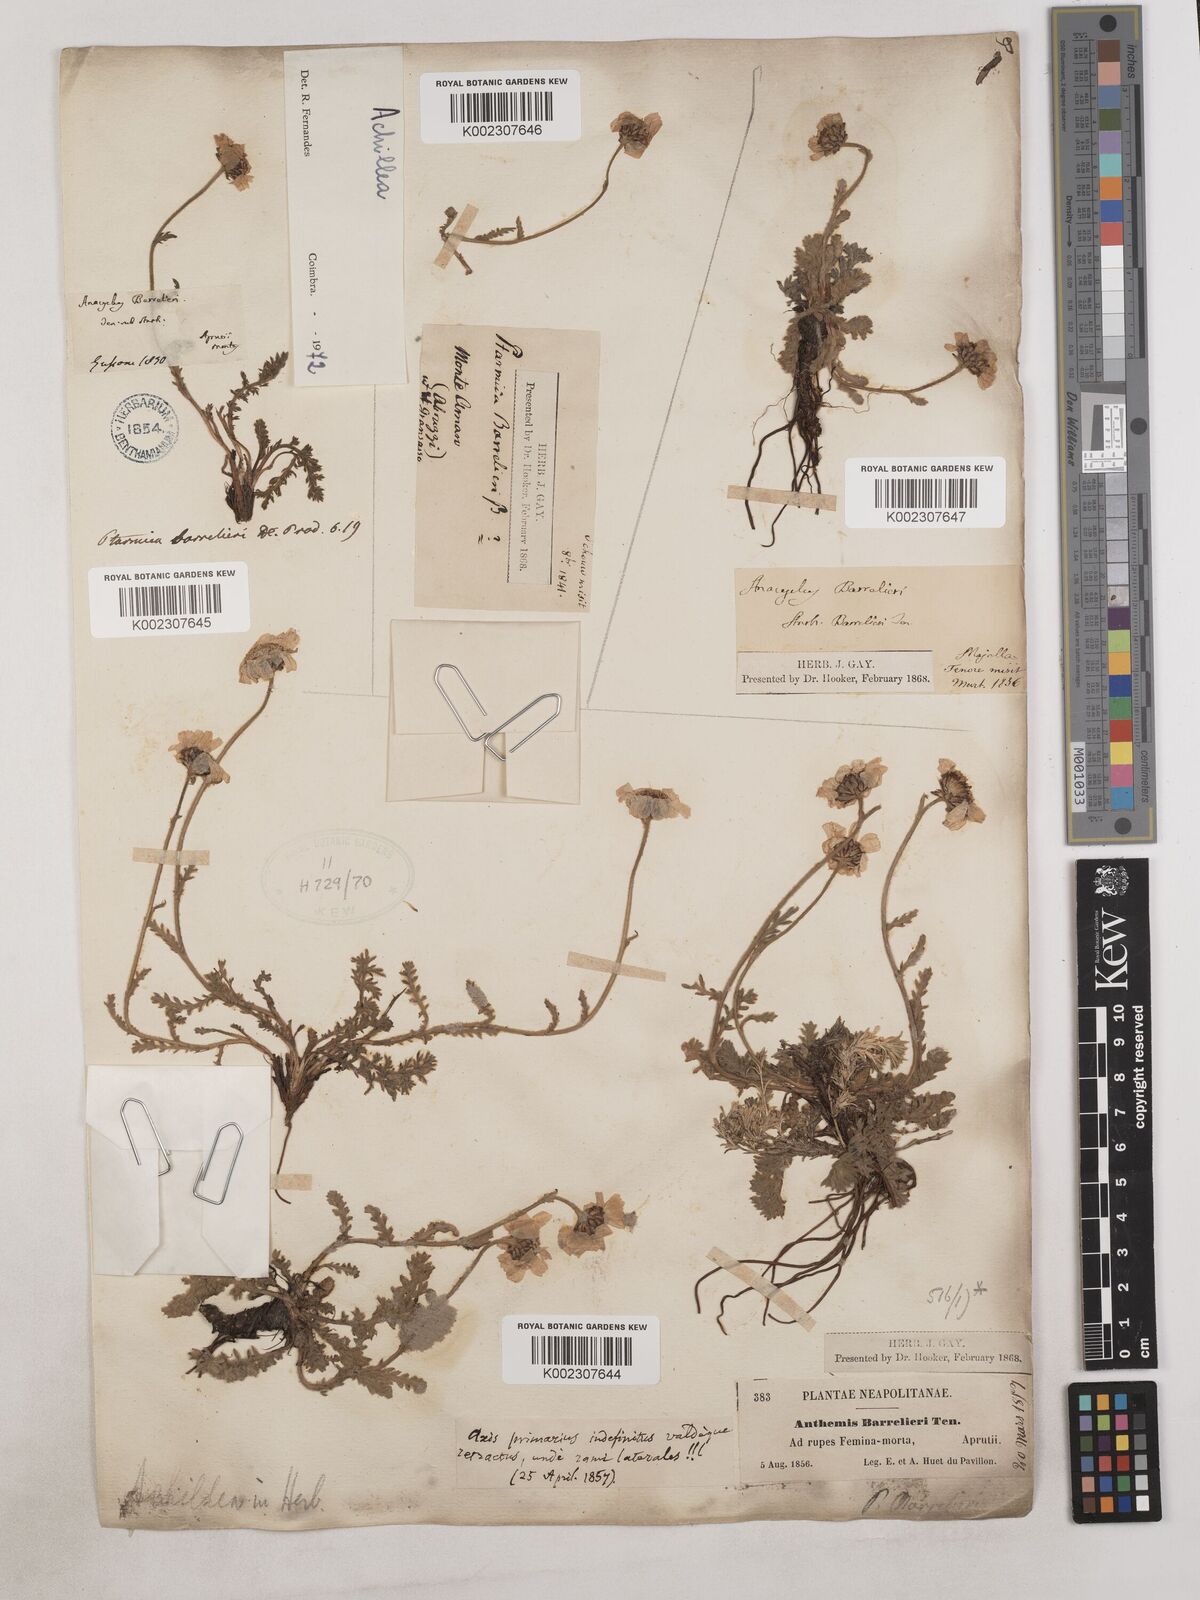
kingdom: Plantae
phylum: Tracheophyta
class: Magnoliopsida
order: Asterales
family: Asteraceae
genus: Achillea
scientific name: Achillea
